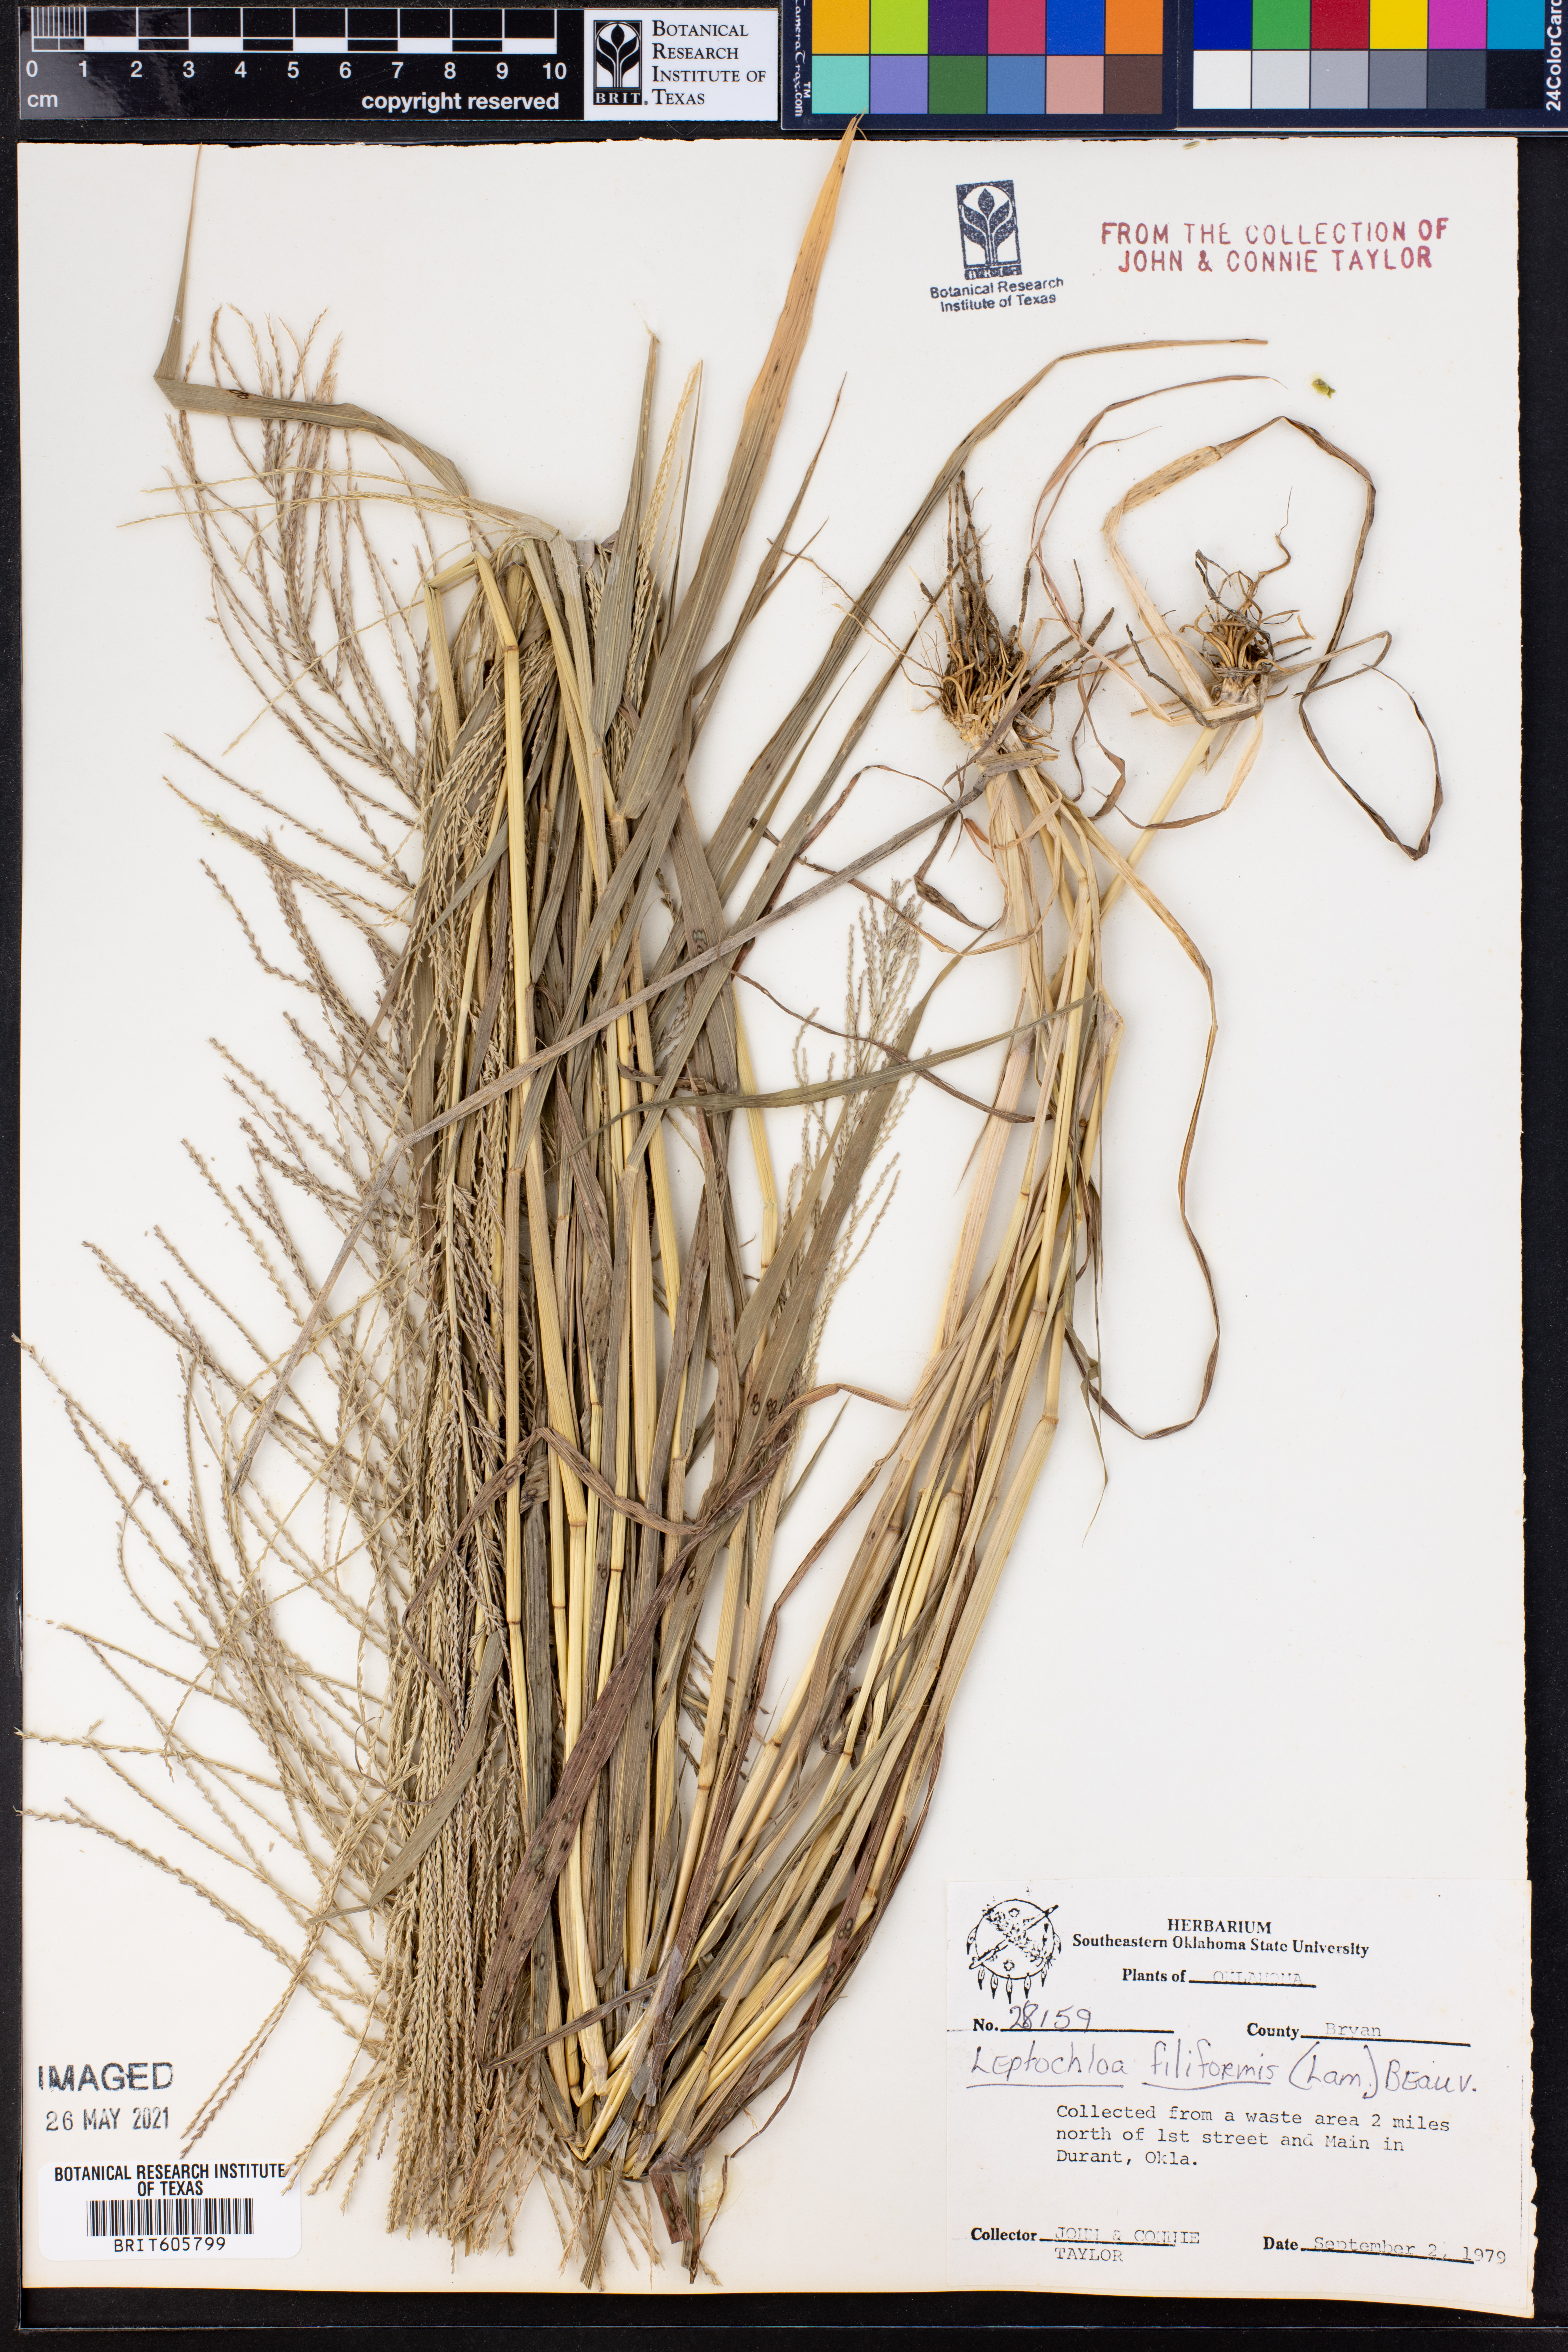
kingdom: Plantae
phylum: Tracheophyta
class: Liliopsida
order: Poales
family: Poaceae
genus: Leptochloa
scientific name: Leptochloa mucronata
